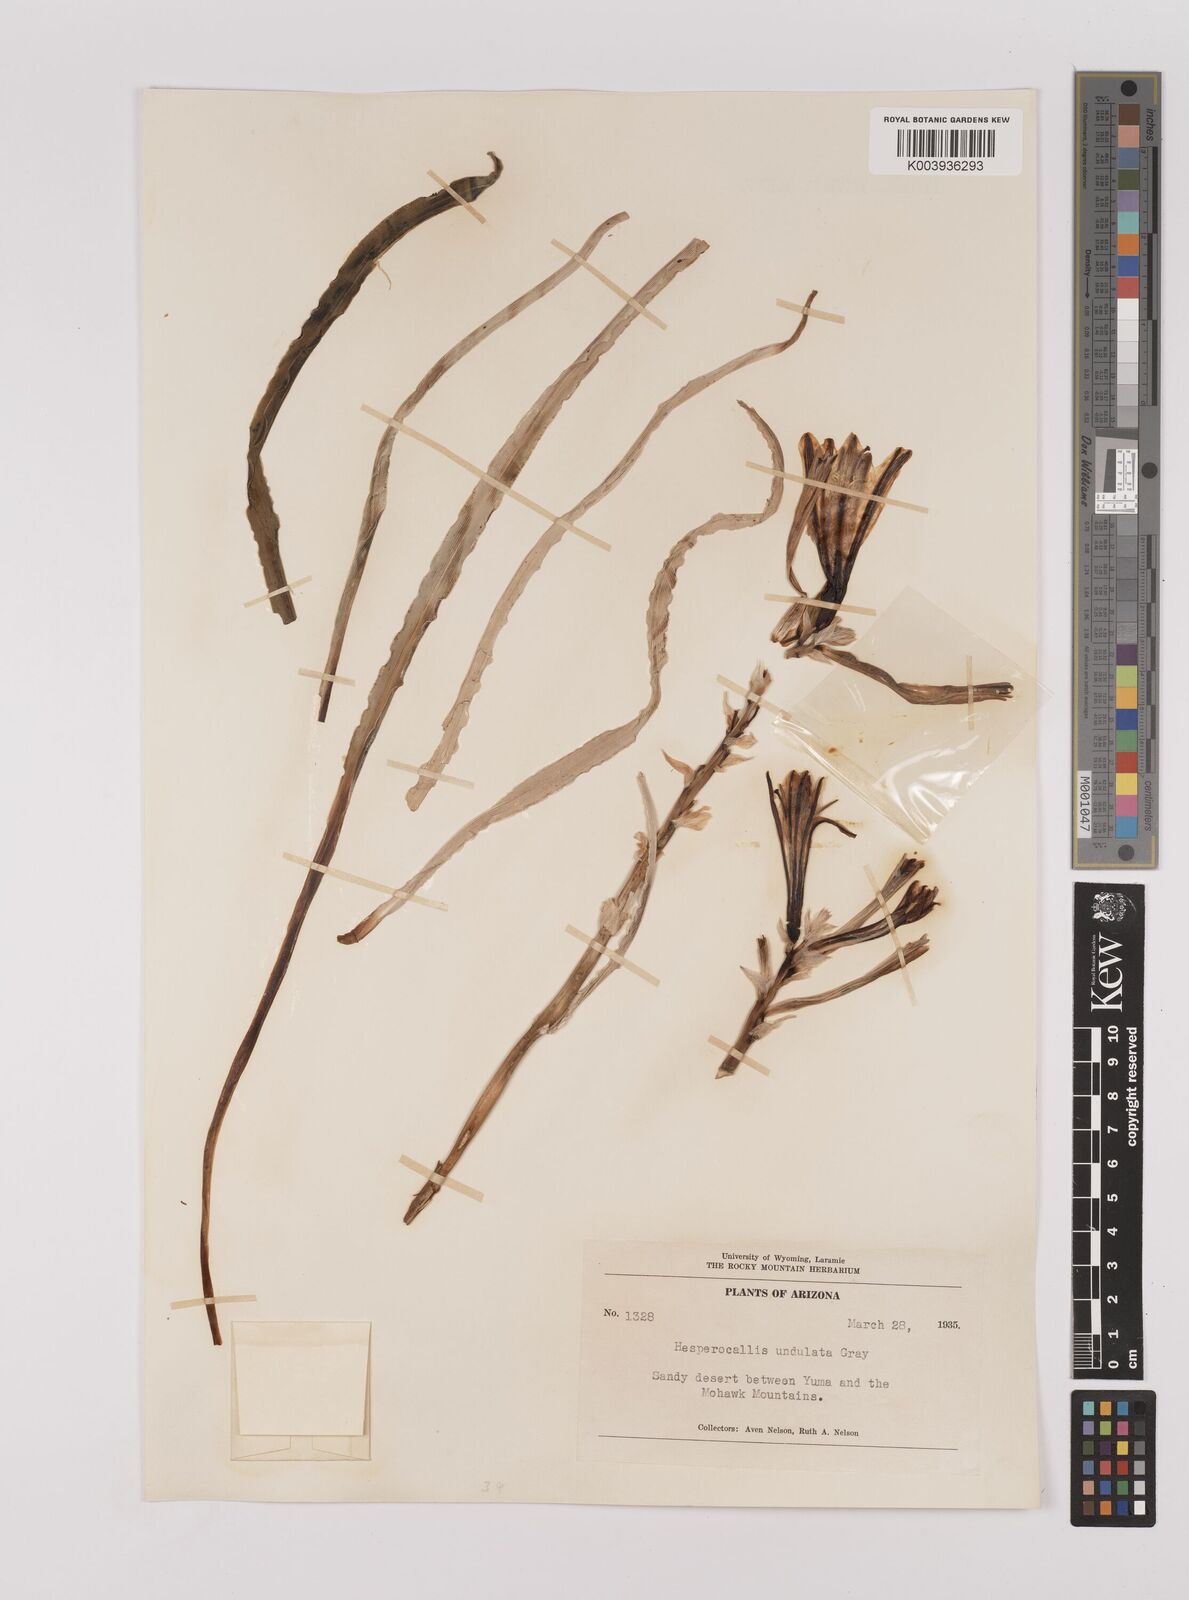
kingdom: Plantae
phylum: Tracheophyta
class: Liliopsida
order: Asparagales
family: Asparagaceae
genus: Hesperocallis
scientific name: Hesperocallis
